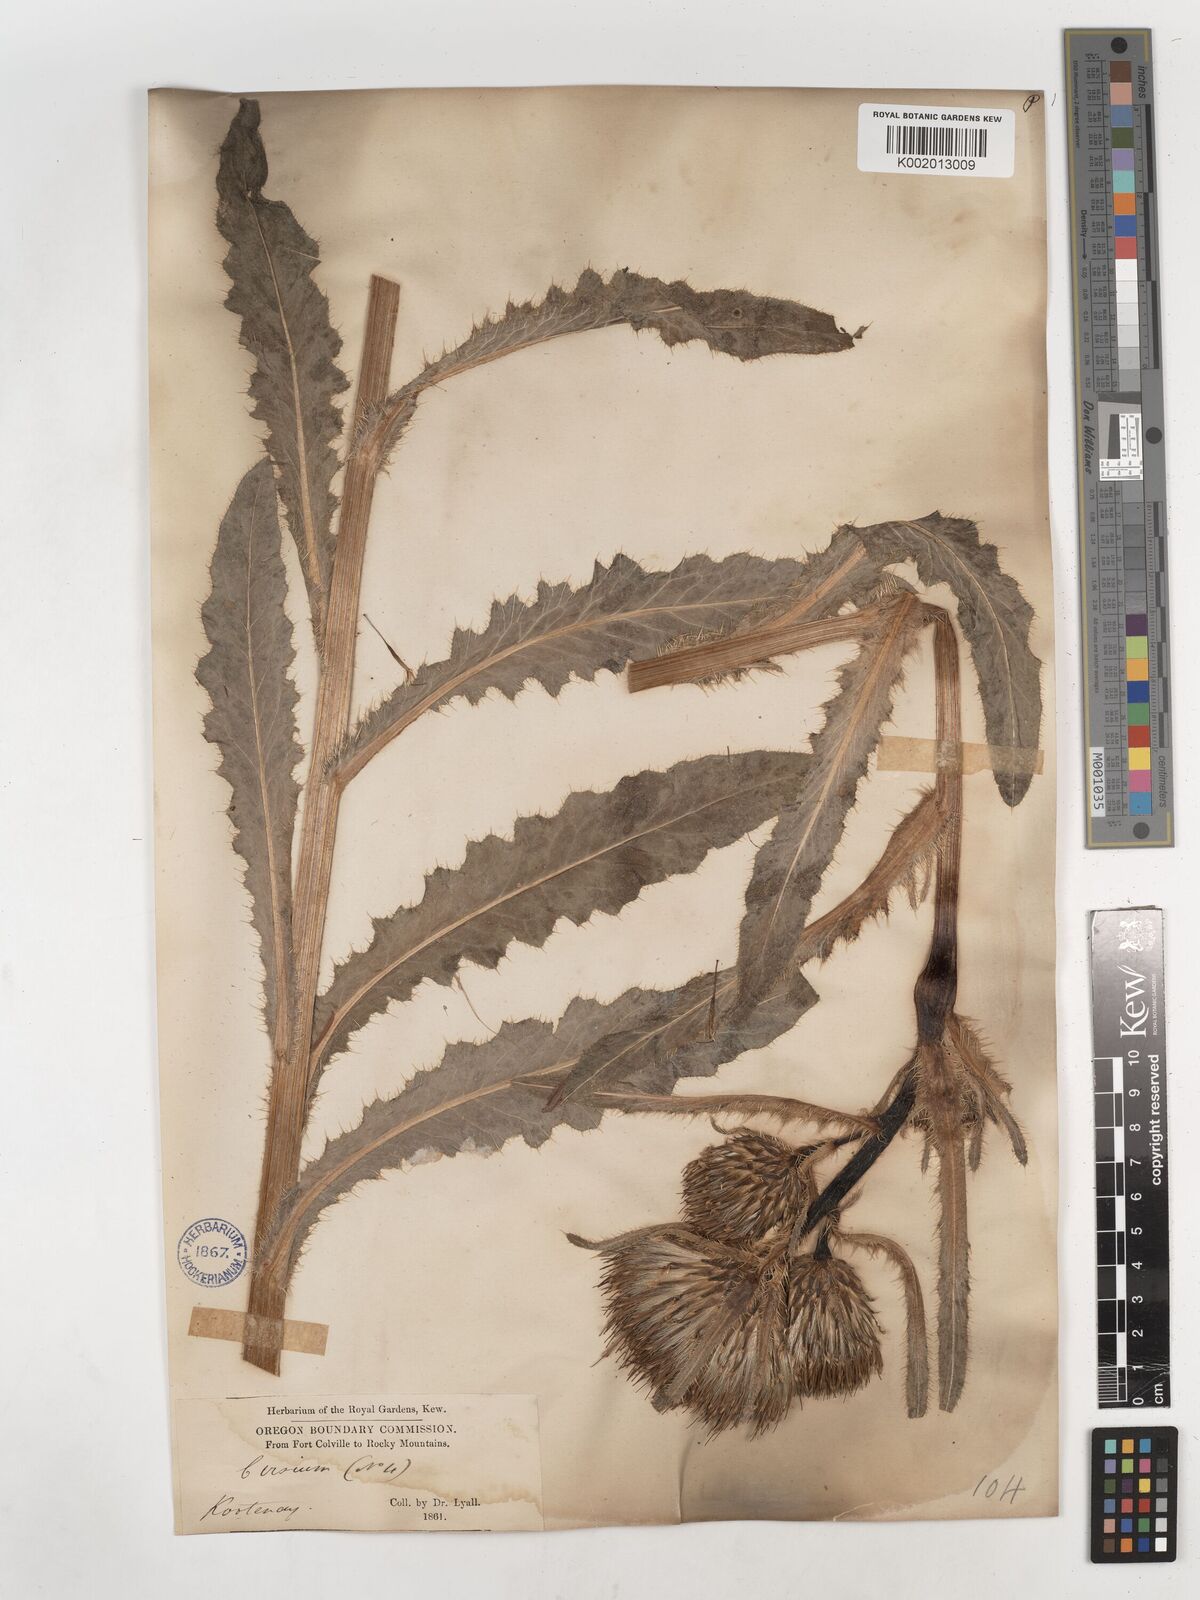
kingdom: Plantae
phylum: Tracheophyta
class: Magnoliopsida
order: Asterales
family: Asteraceae
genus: Cirsium
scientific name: Cirsium drummondii
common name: Drummond's thistle
